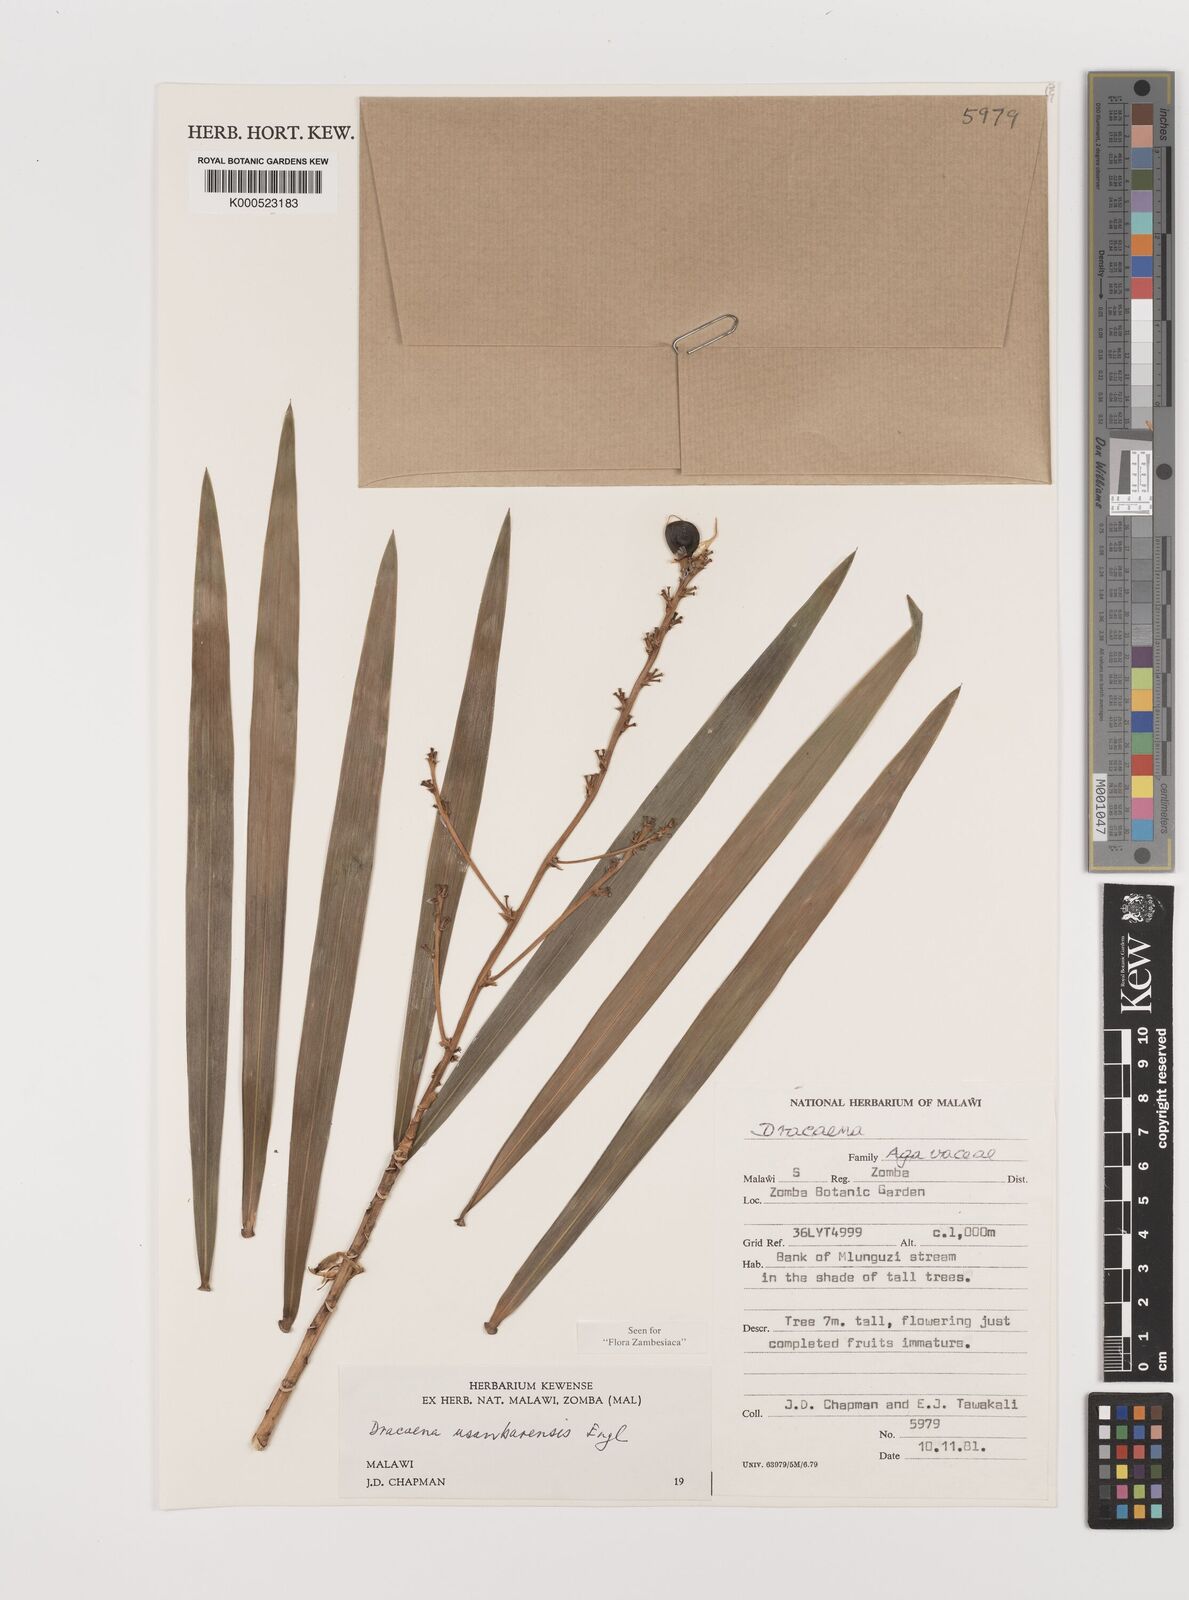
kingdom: Plantae
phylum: Tracheophyta
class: Liliopsida
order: Asparagales
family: Asparagaceae
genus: Dracaena
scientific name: Dracaena usambarensis
